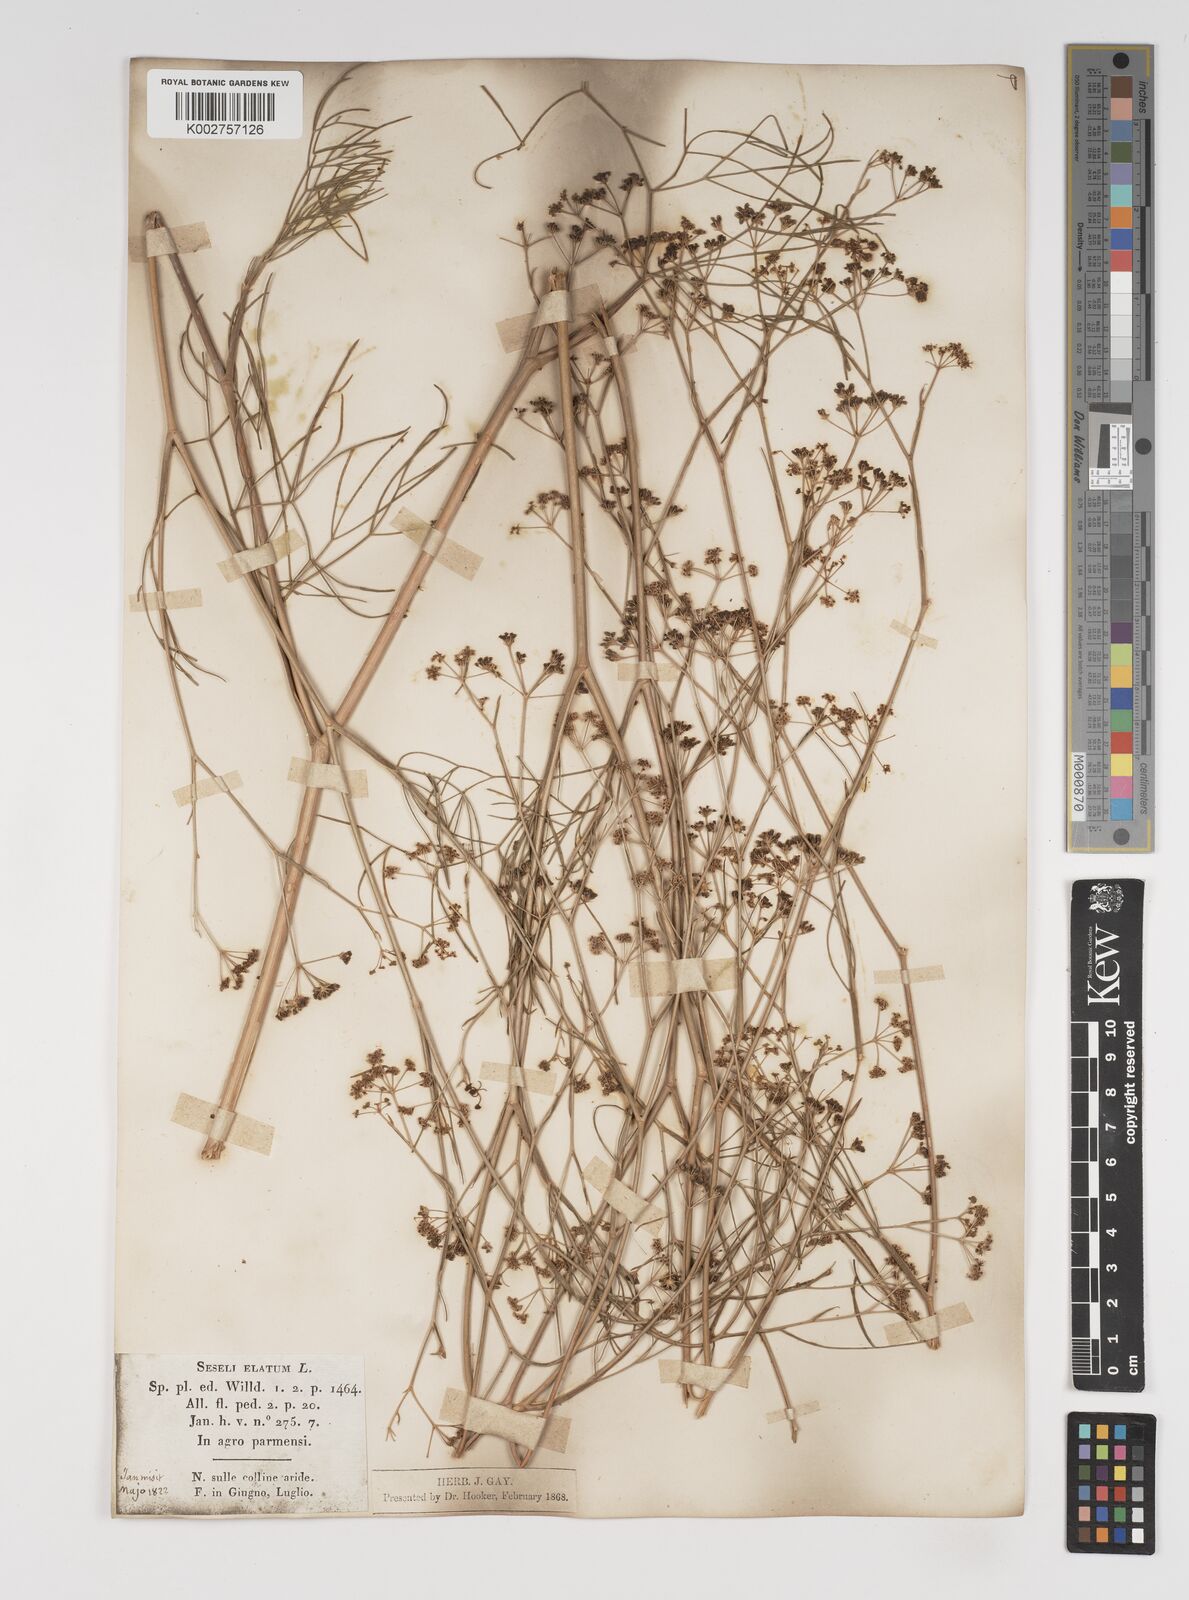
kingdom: Plantae
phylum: Tracheophyta
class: Magnoliopsida
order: Apiales
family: Apiaceae
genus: Seseli
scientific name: Seseli longifolium
